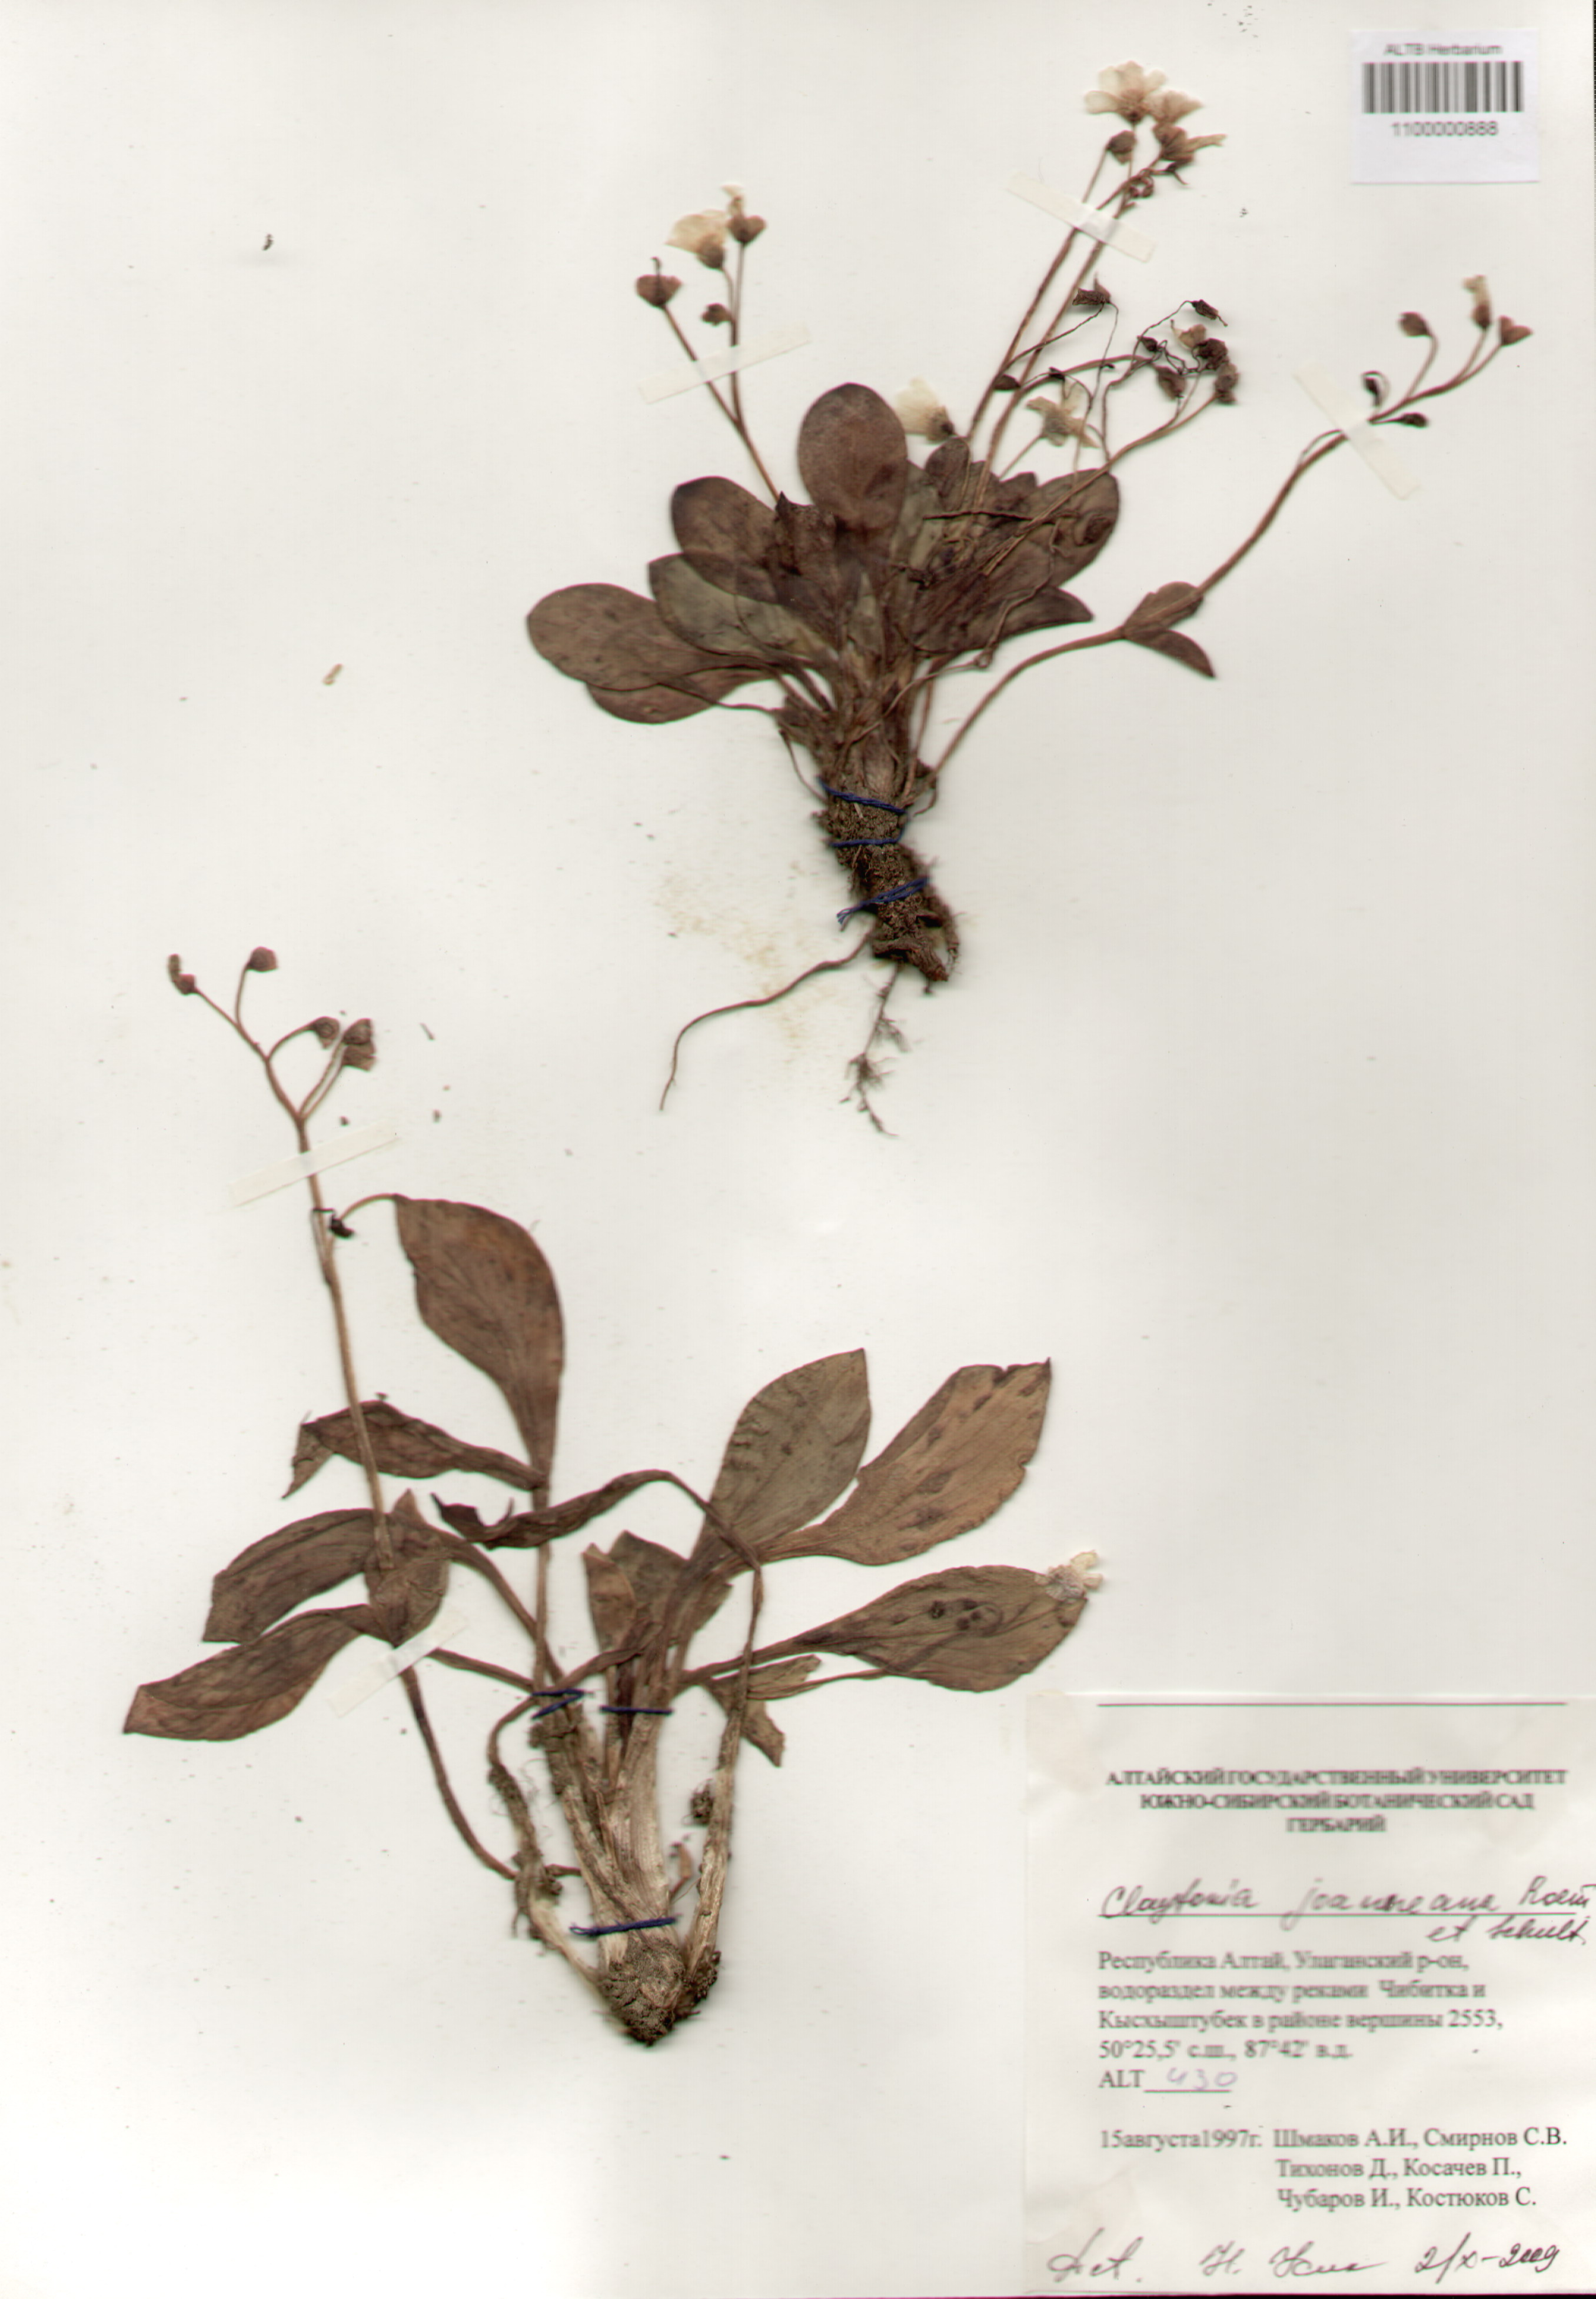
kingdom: Plantae
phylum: Tracheophyta
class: Magnoliopsida
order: Caryophyllales
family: Montiaceae
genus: Claytonia
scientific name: Claytonia joanneana
